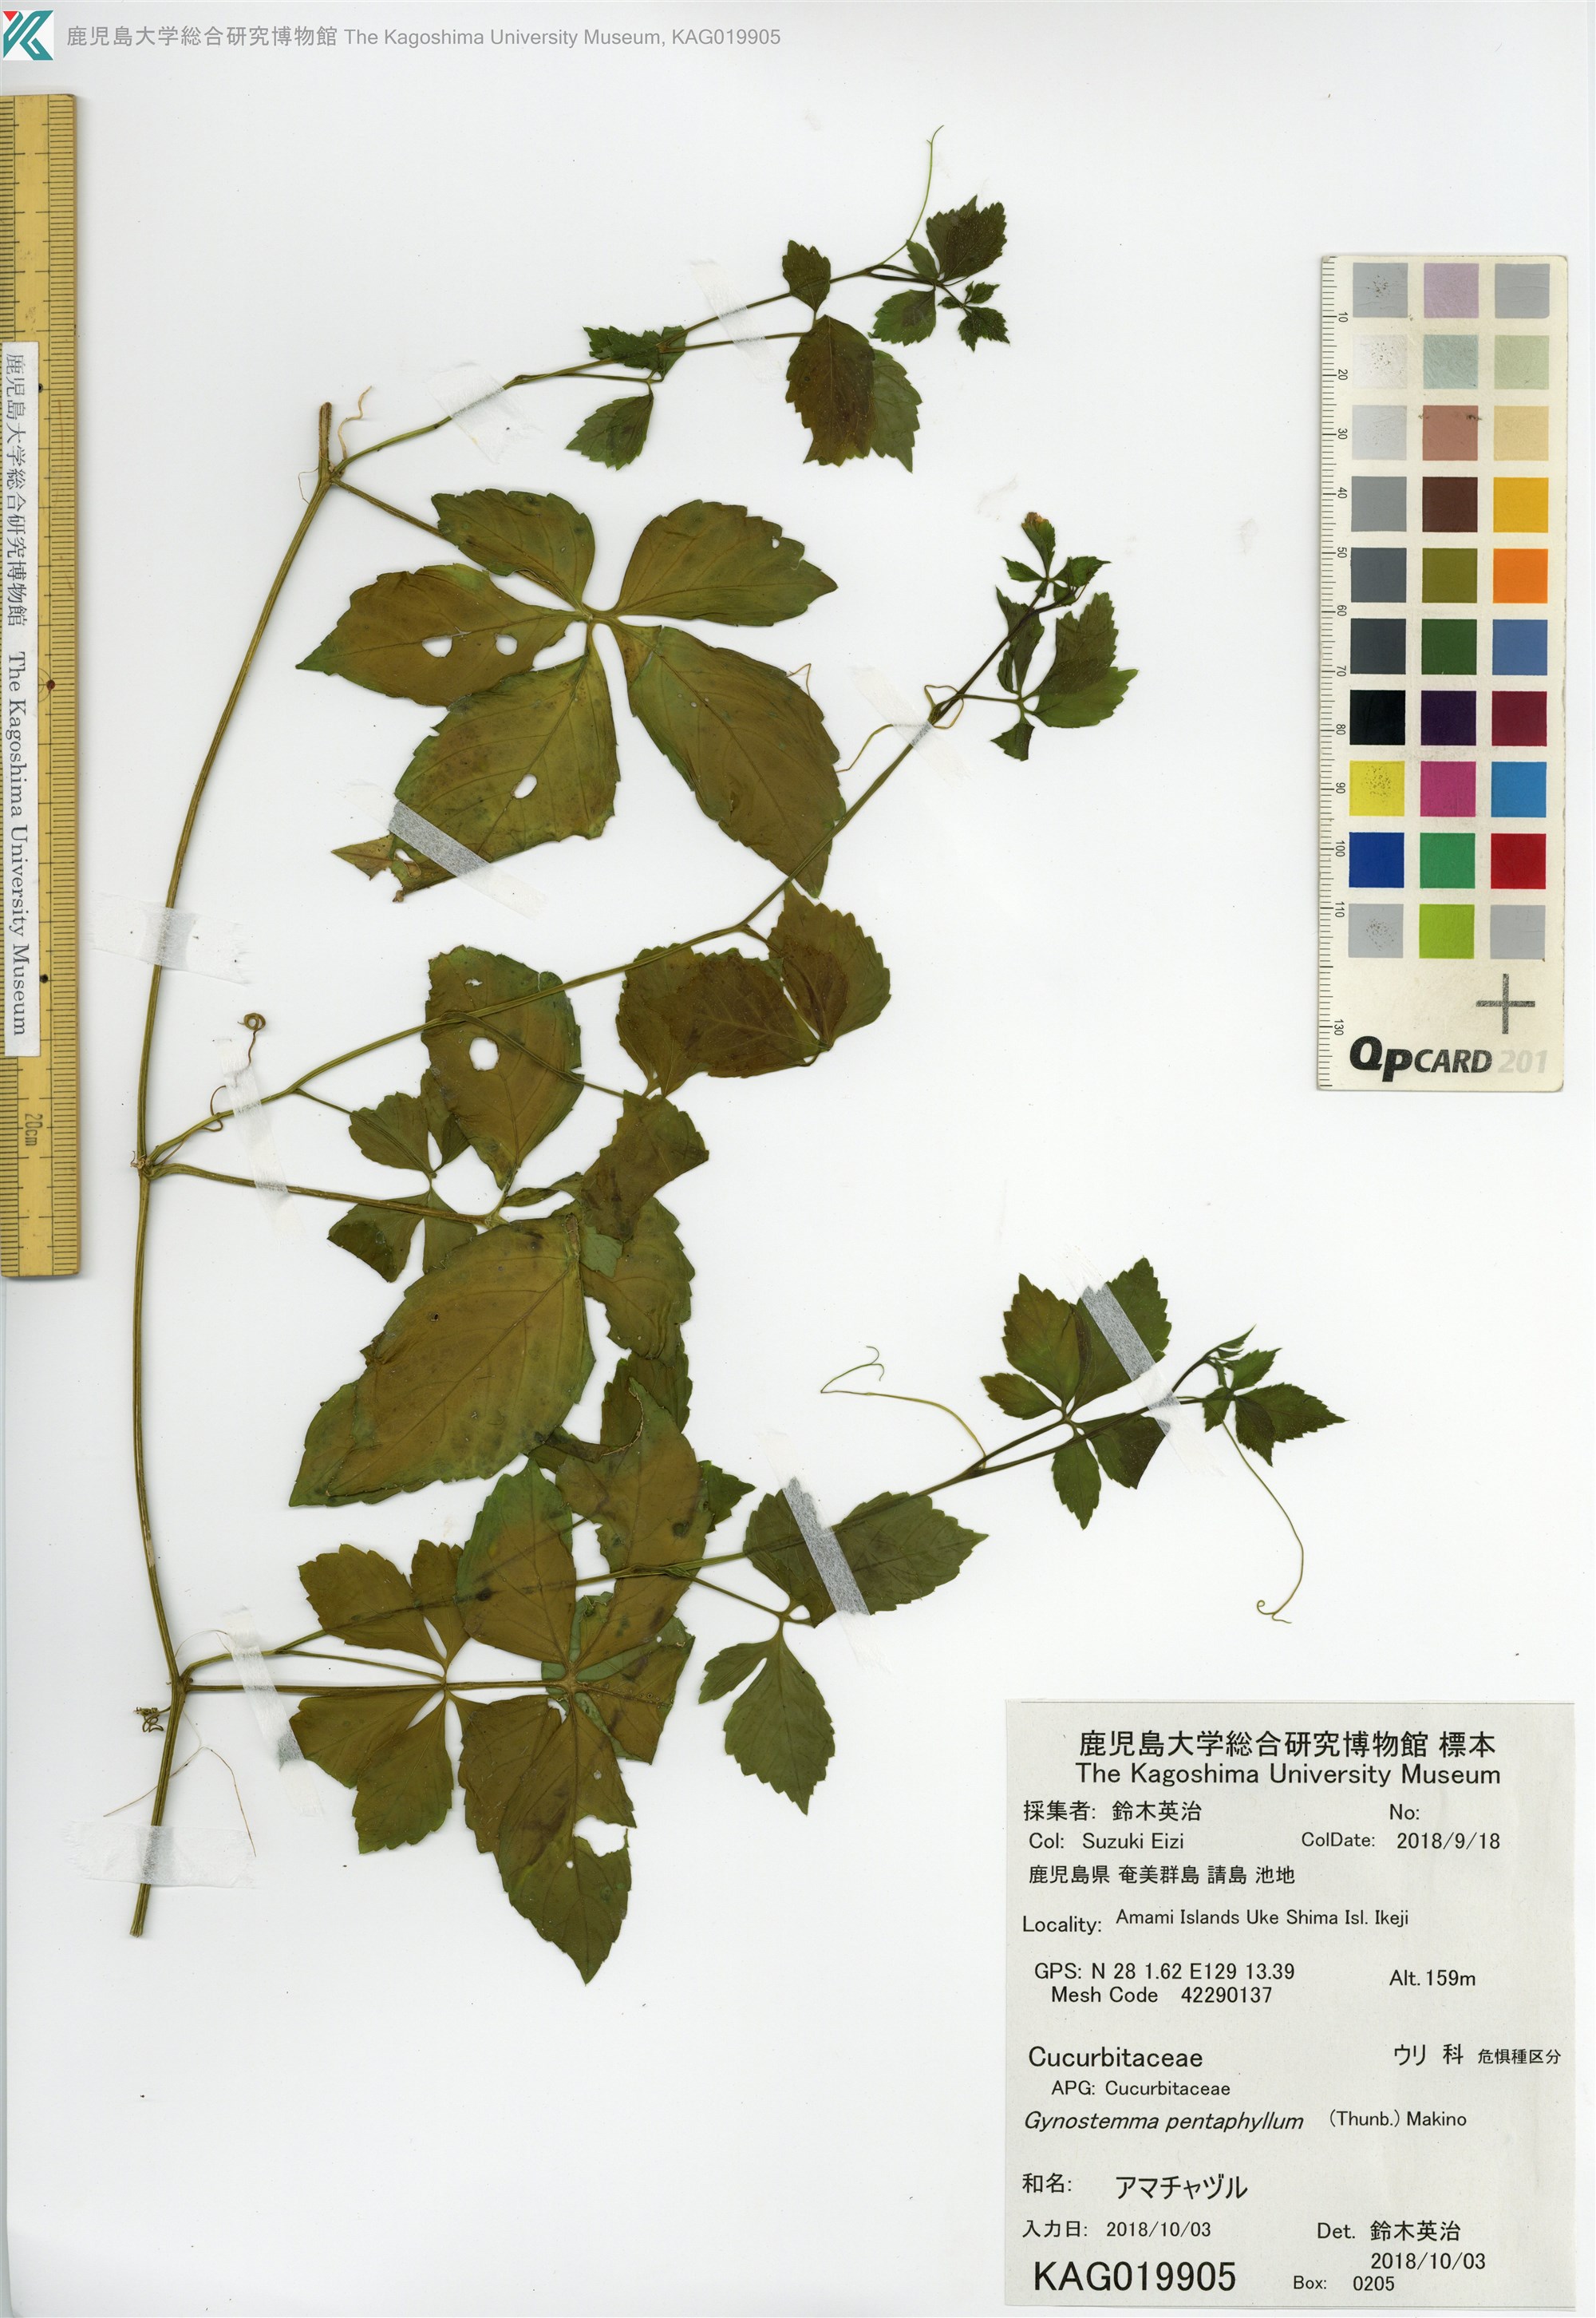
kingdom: Plantae
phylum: Tracheophyta
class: Magnoliopsida
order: Cucurbitales
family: Cucurbitaceae
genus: Gynostemma
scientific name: Gynostemma pentaphyllum
